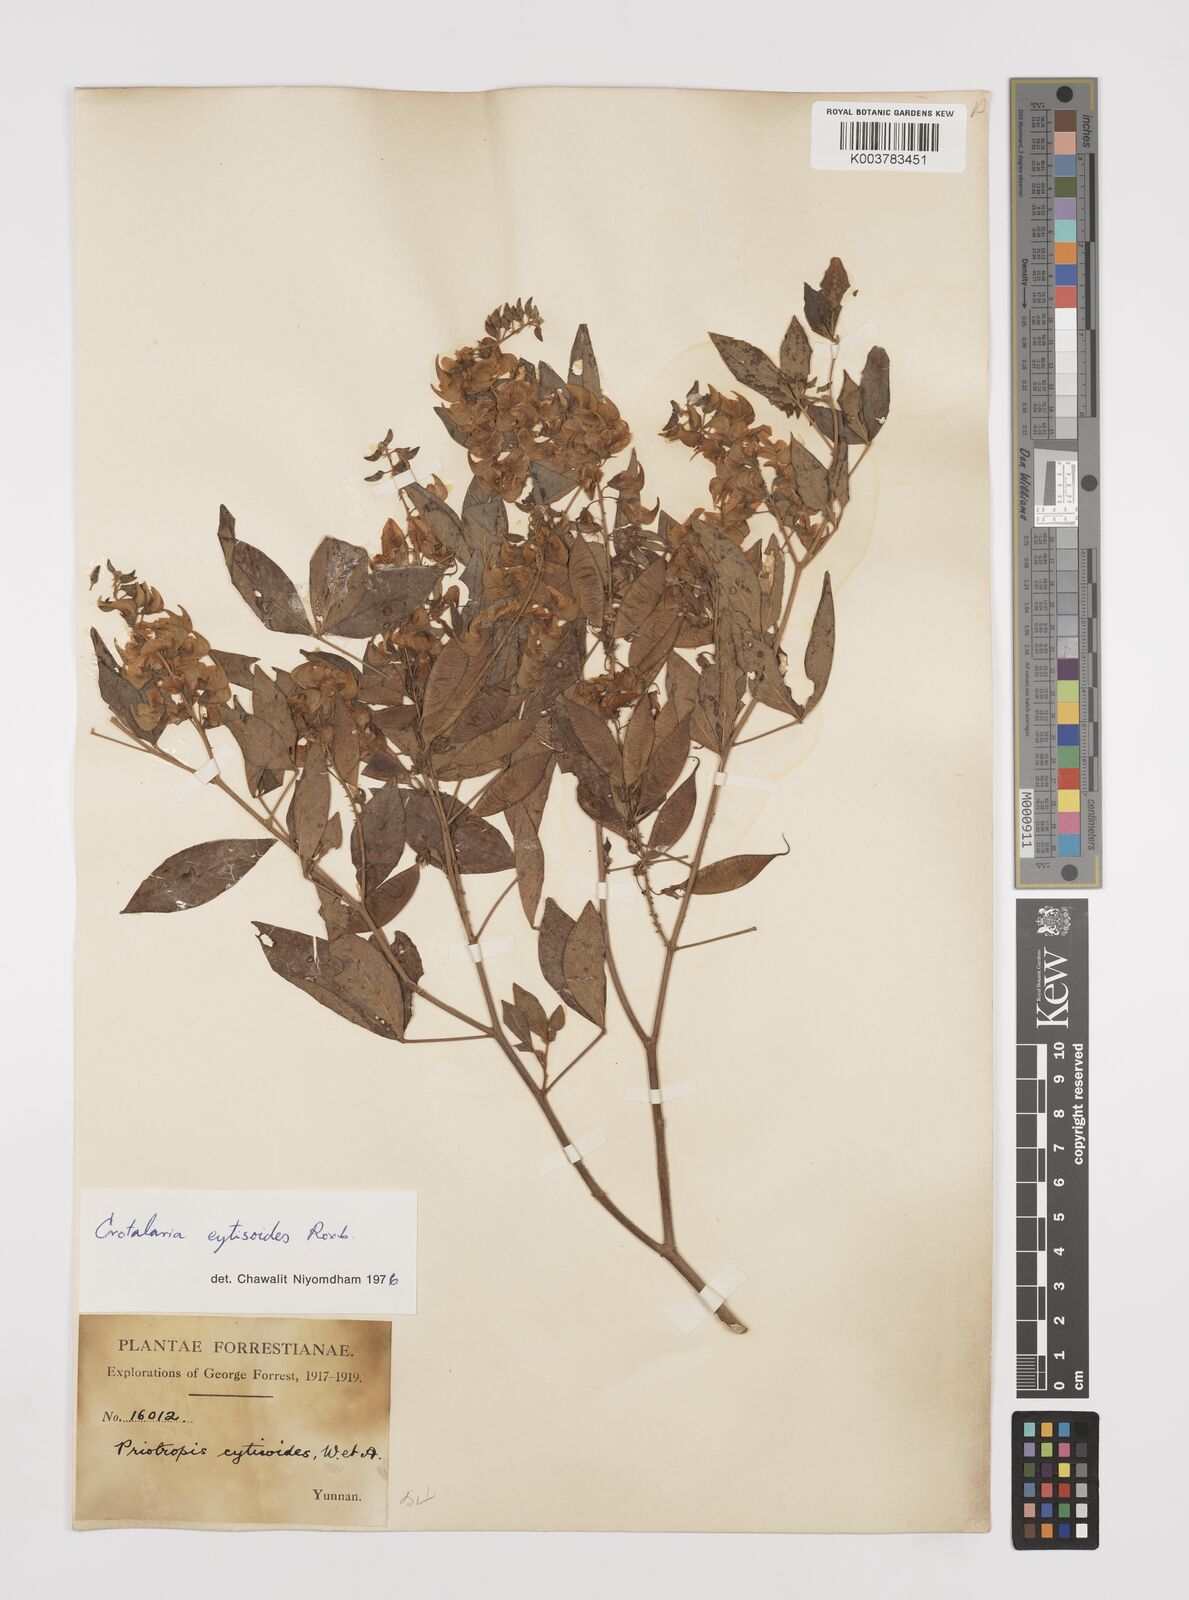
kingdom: Plantae
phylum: Tracheophyta
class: Magnoliopsida
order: Fabales
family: Fabaceae
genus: Crotalaria
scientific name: Crotalaria cytisoides
